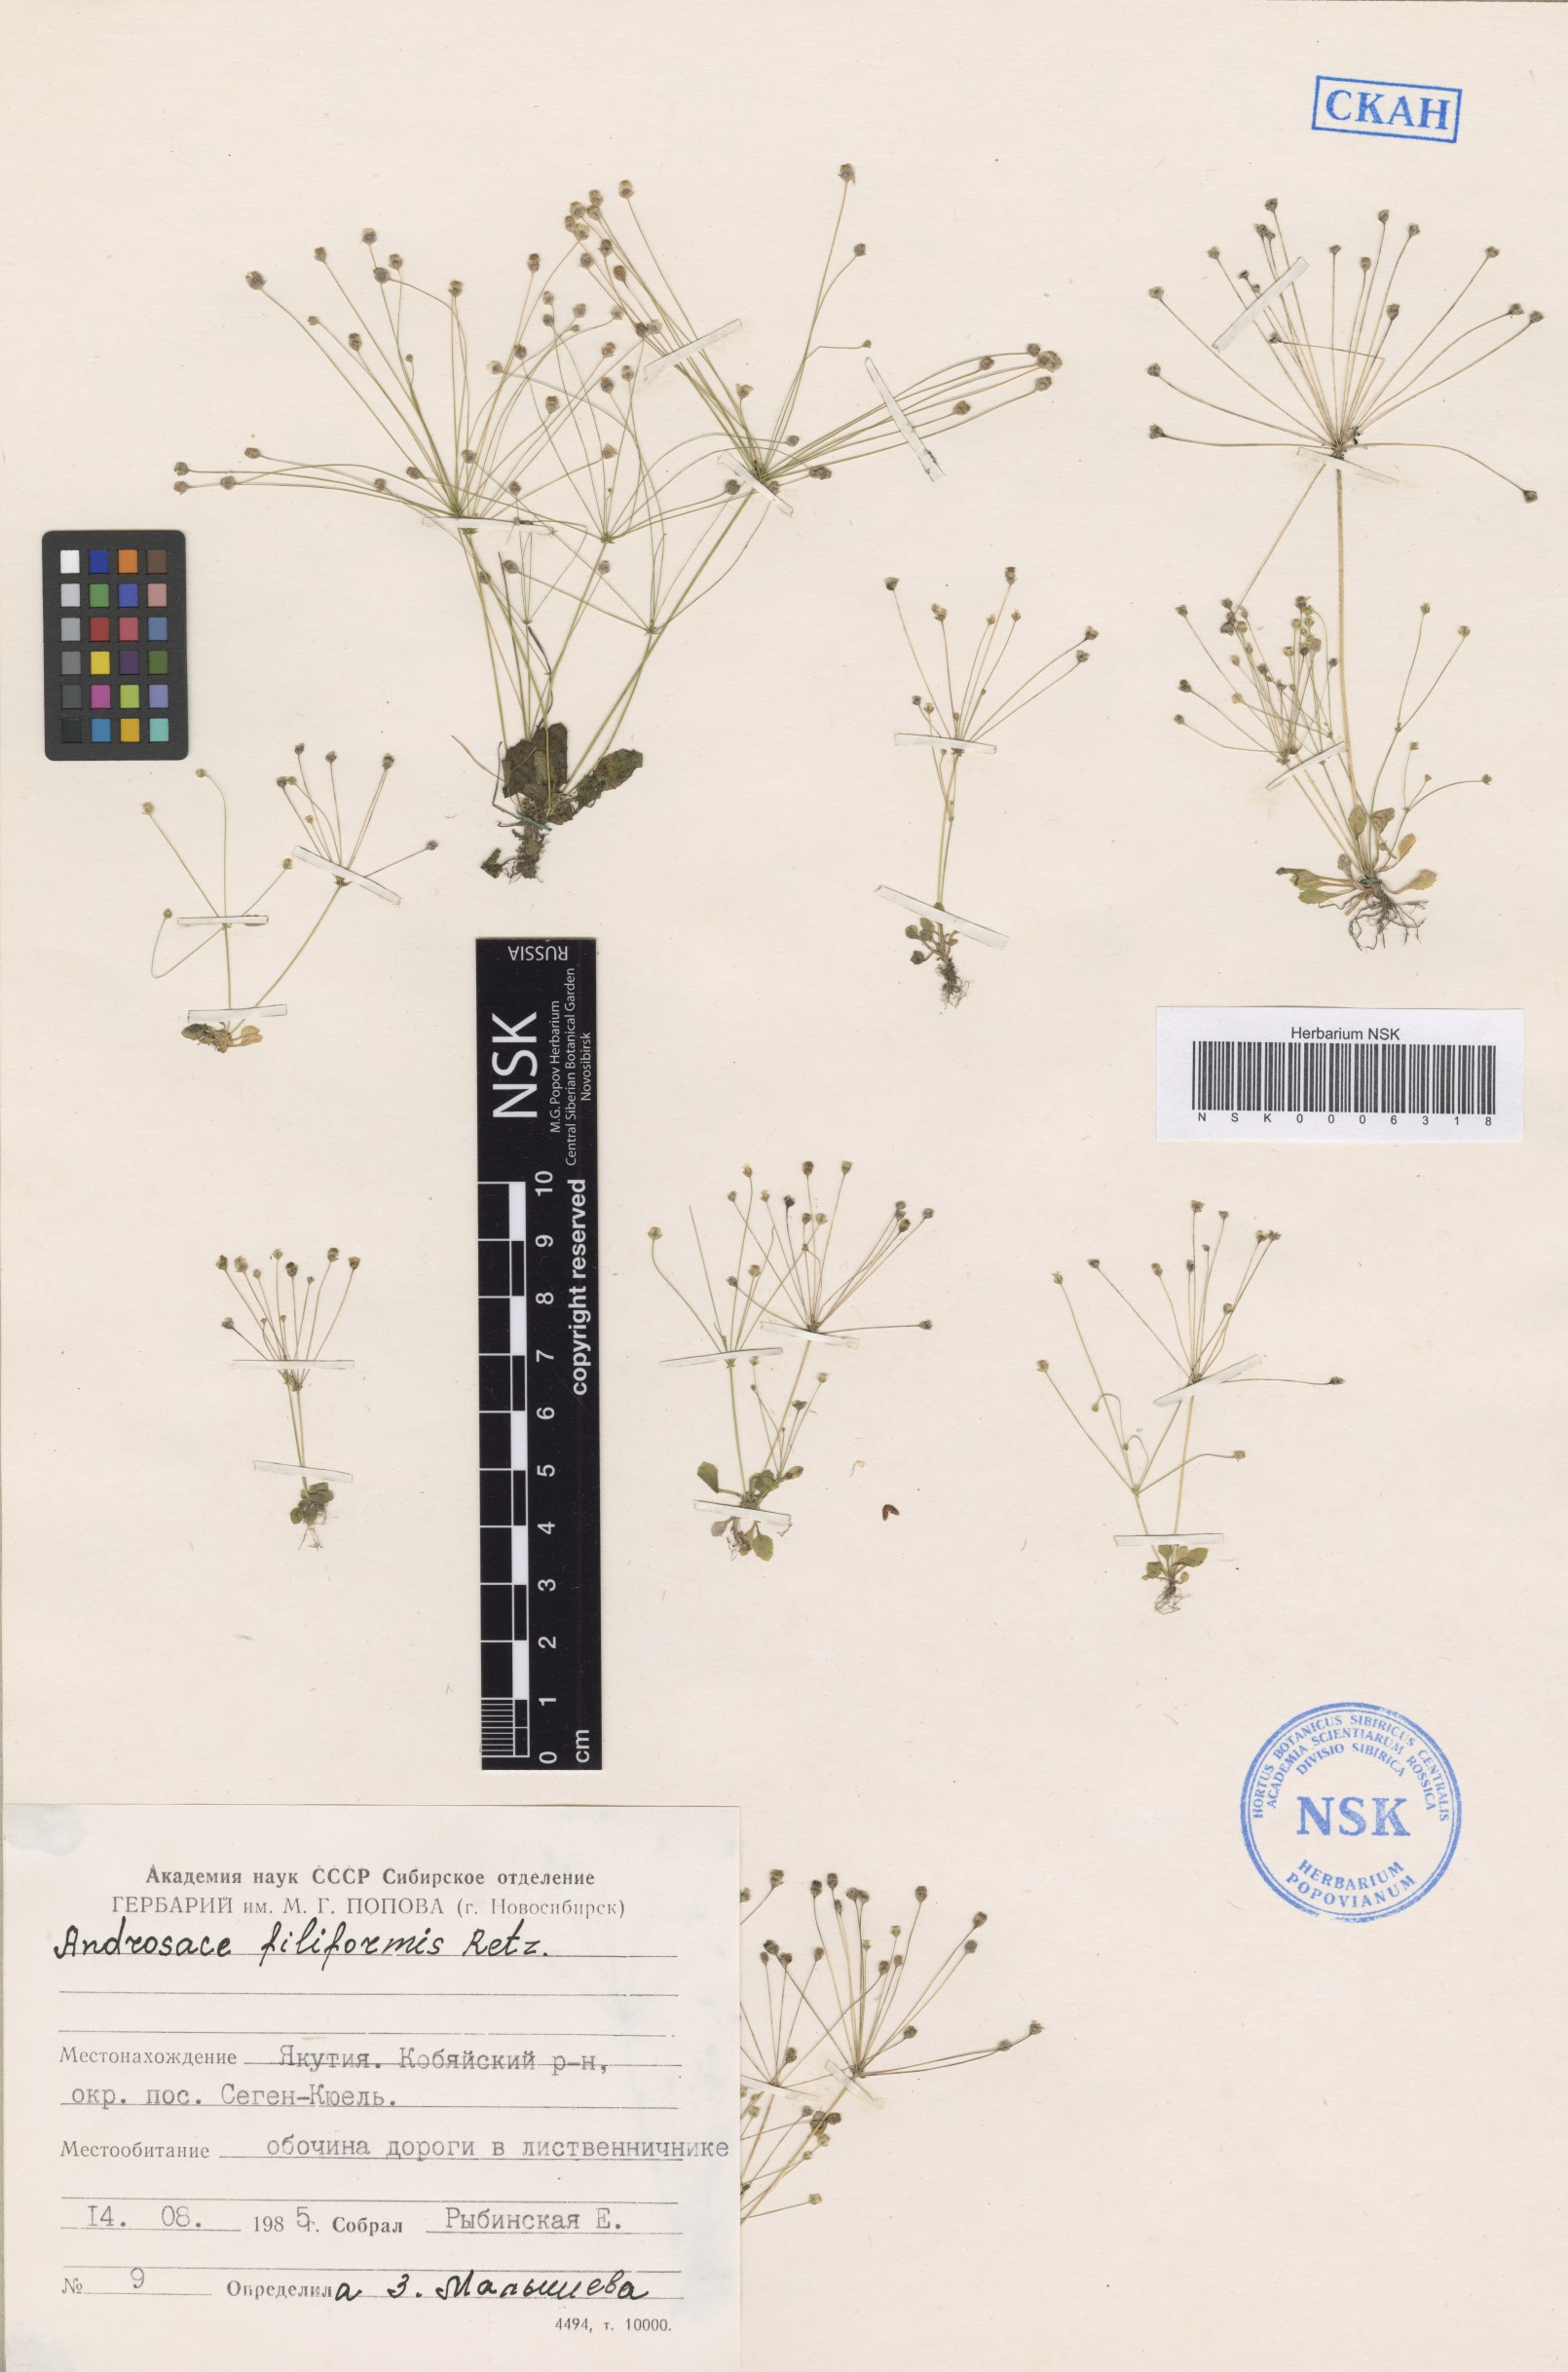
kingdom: Plantae
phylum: Tracheophyta
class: Magnoliopsida
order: Ericales
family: Primulaceae
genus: Androsace
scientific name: Androsace filiformis
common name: Filiform rock jasmine
